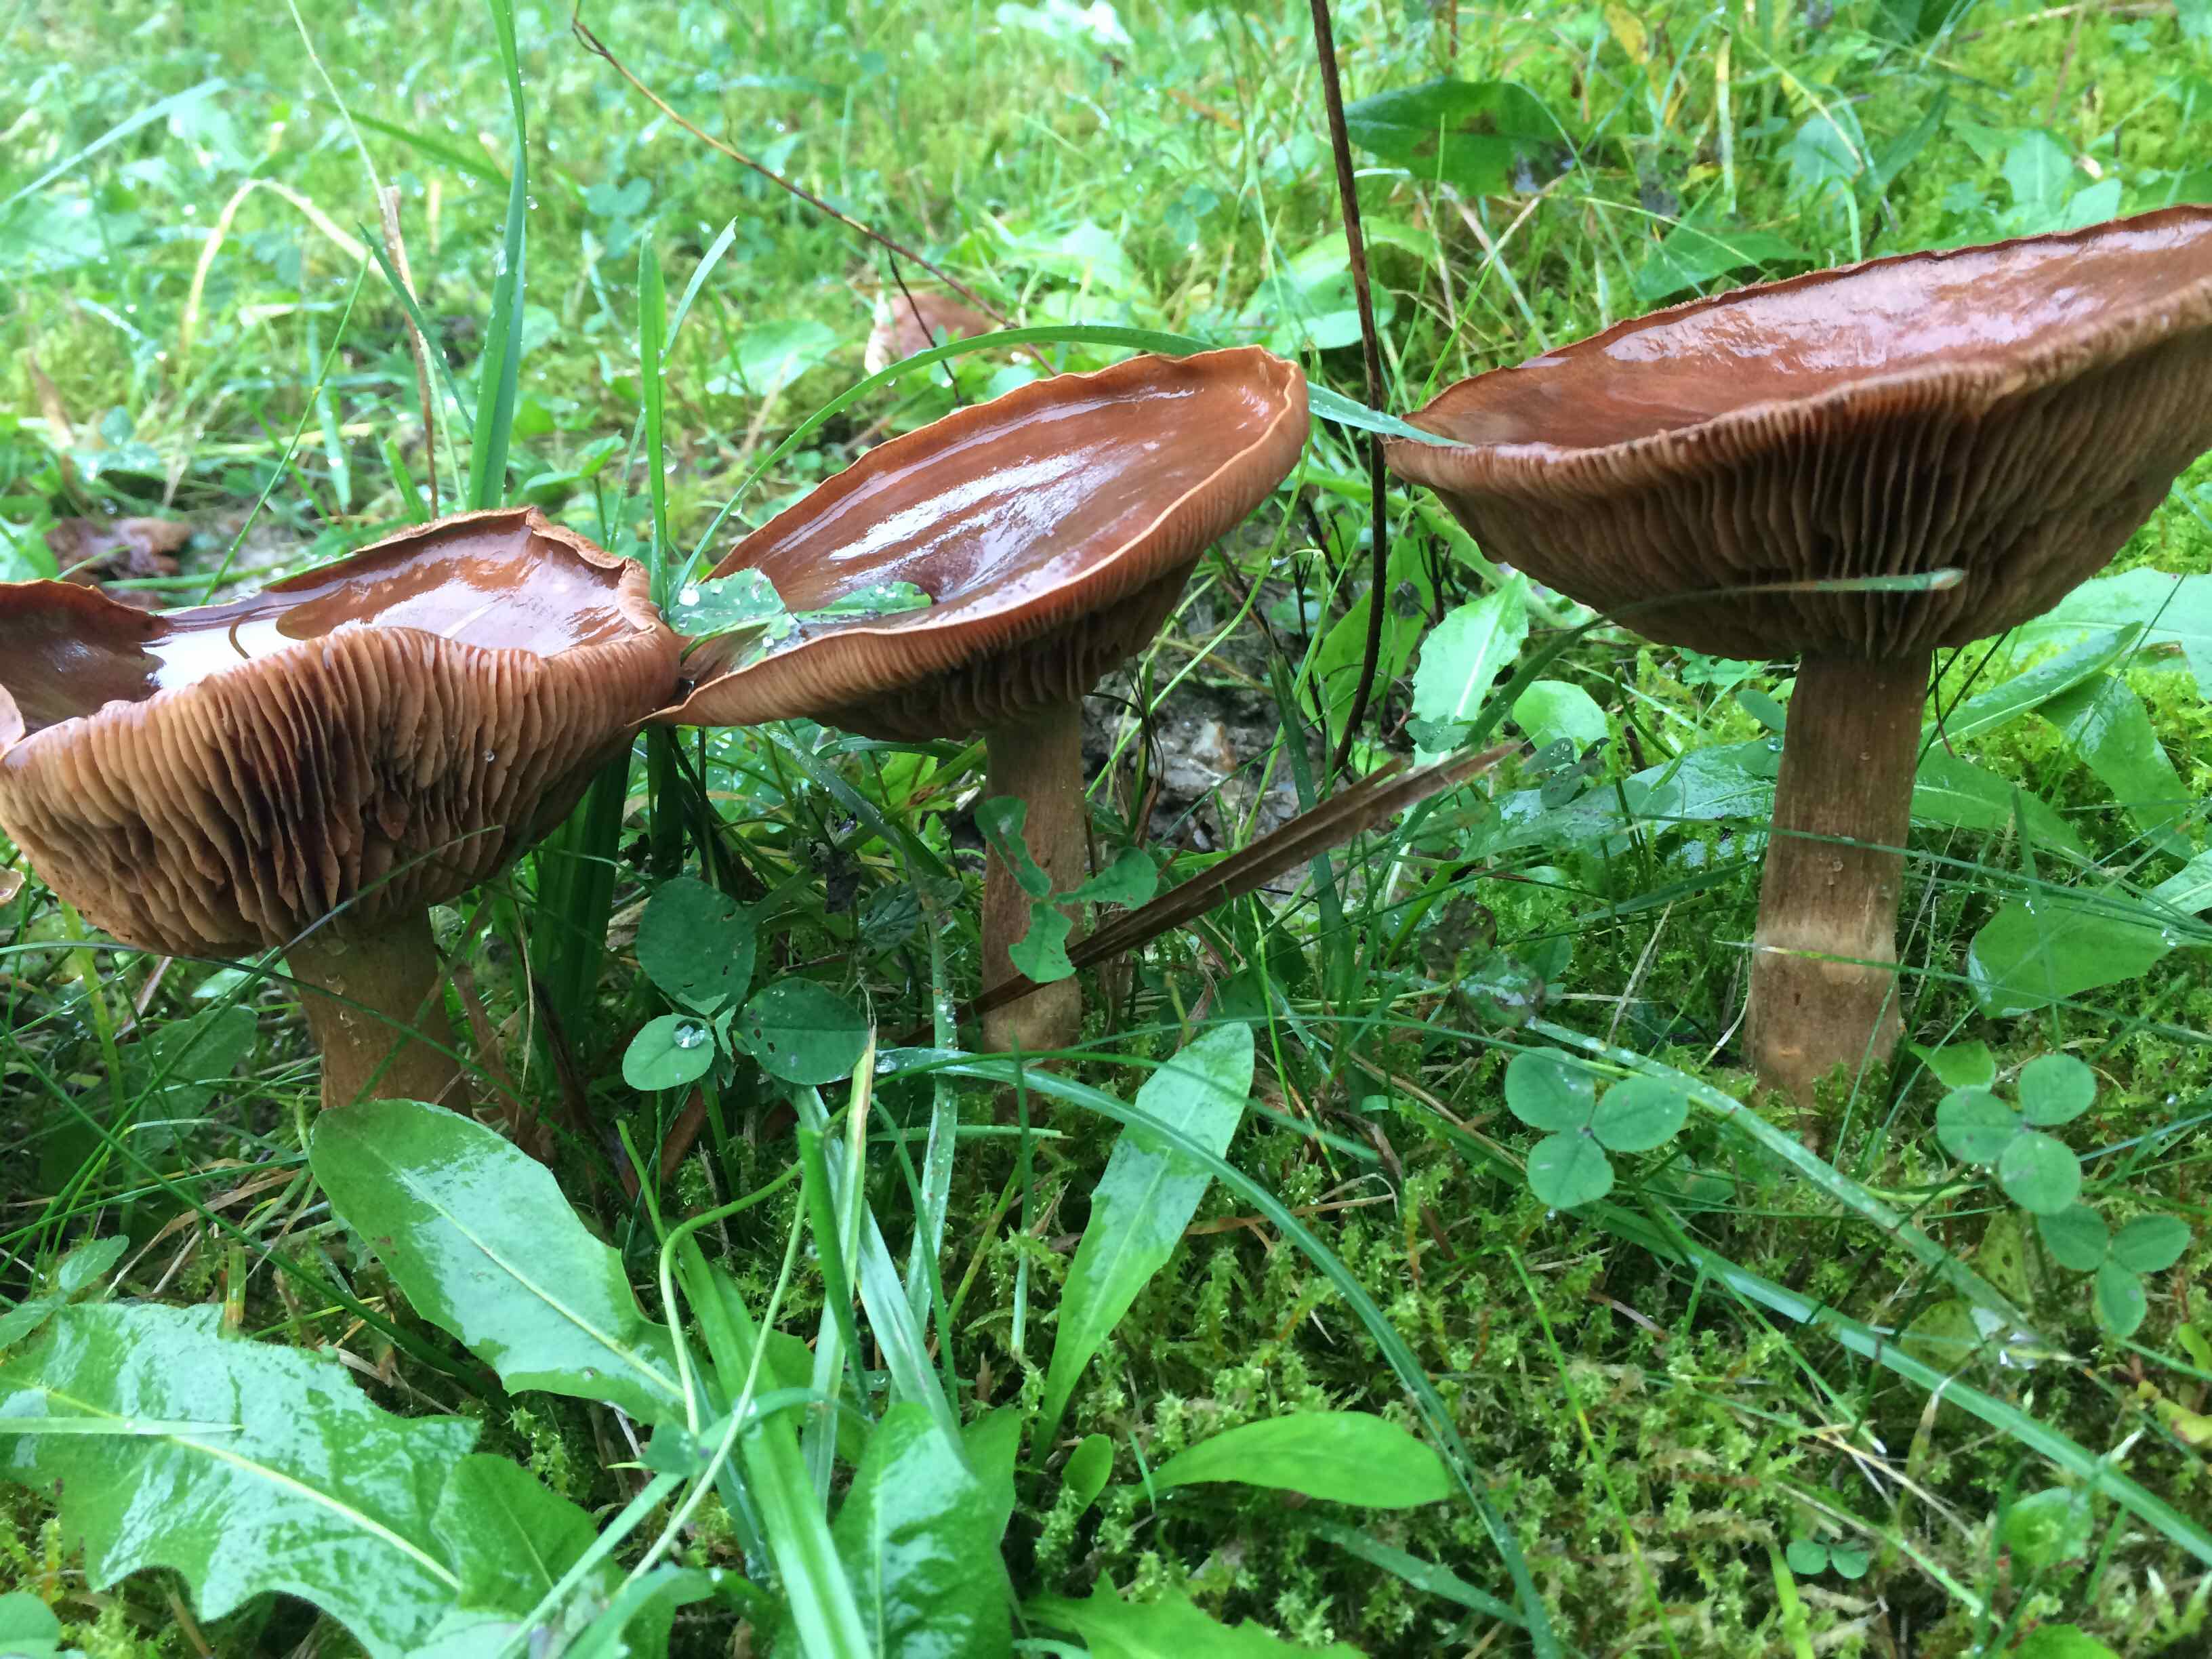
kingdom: Fungi
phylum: Basidiomycota
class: Agaricomycetes
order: Agaricales
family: Cortinariaceae
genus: Cortinarius
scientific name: Cortinarius
